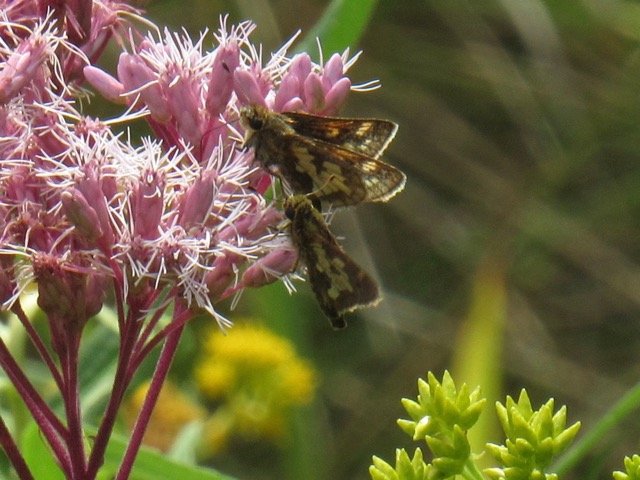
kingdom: Animalia
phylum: Arthropoda
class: Insecta
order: Lepidoptera
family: Hesperiidae
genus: Polites
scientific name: Polites coras
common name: Peck's Skipper
